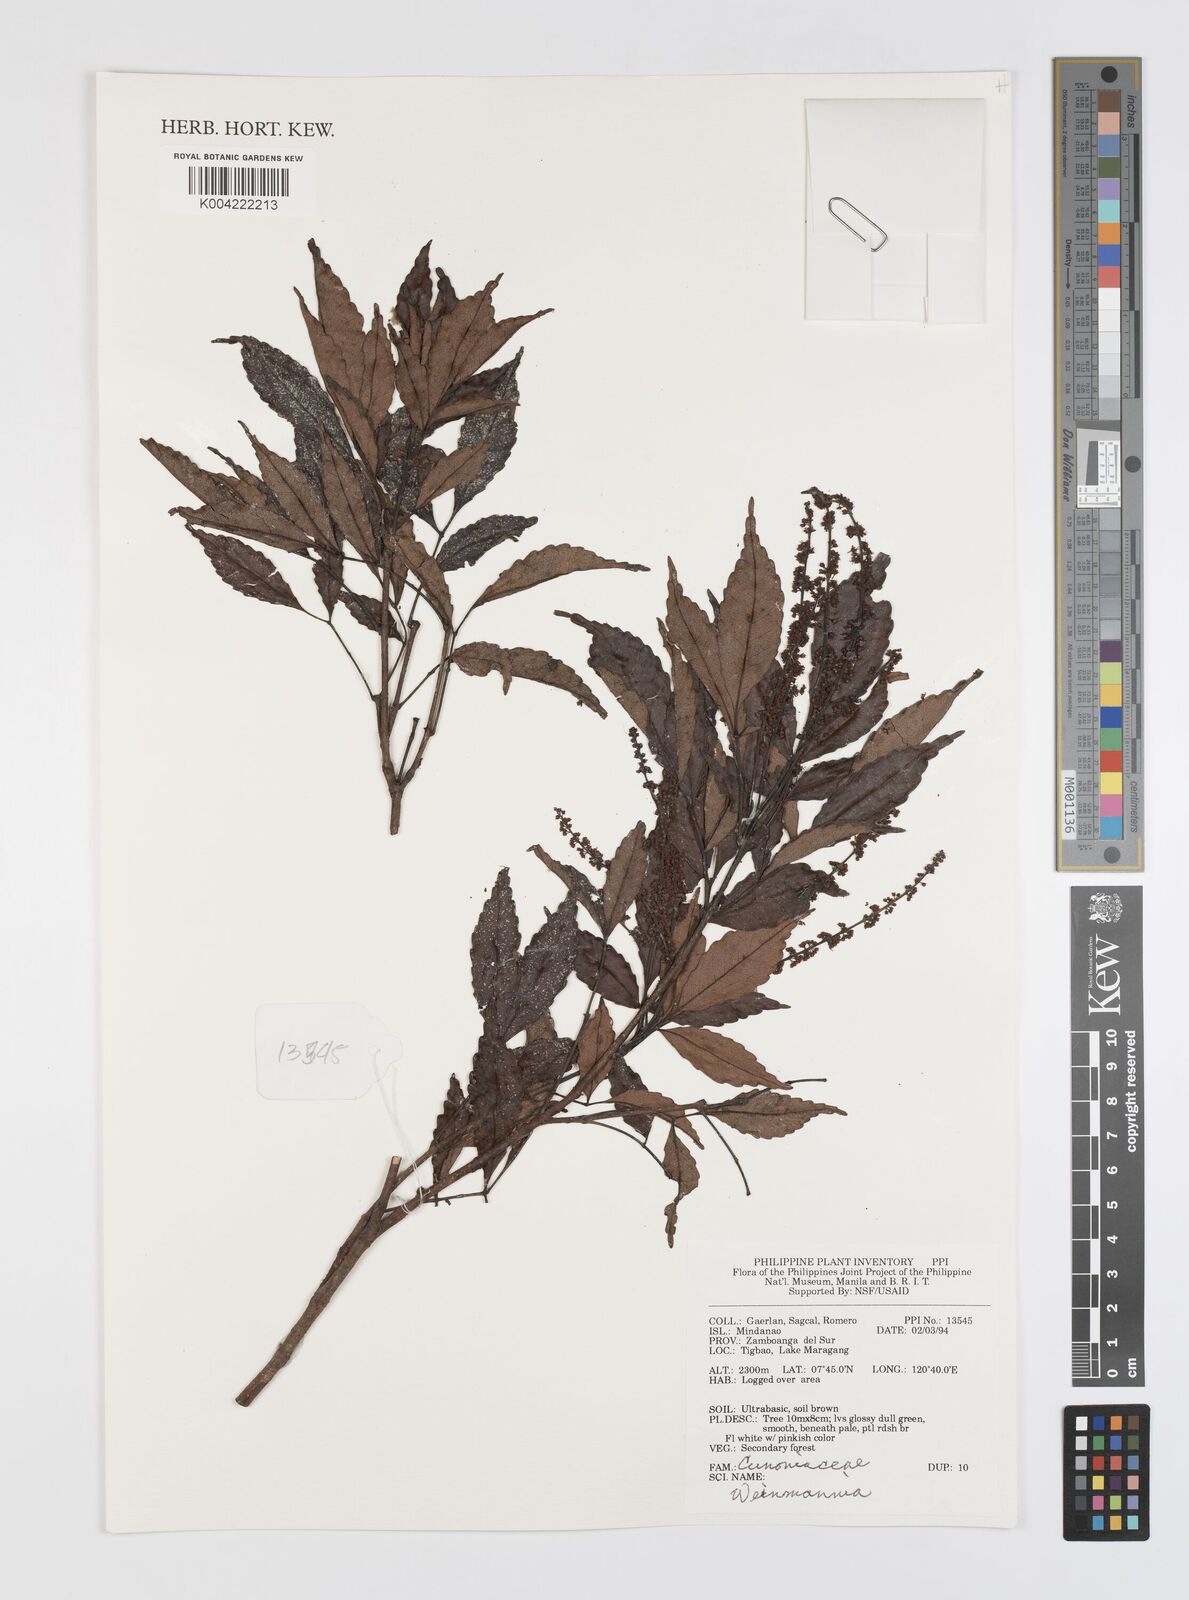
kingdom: Plantae
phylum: Tracheophyta
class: Magnoliopsida
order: Oxalidales
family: Cunoniaceae
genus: Weinmannia
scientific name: Weinmannia
